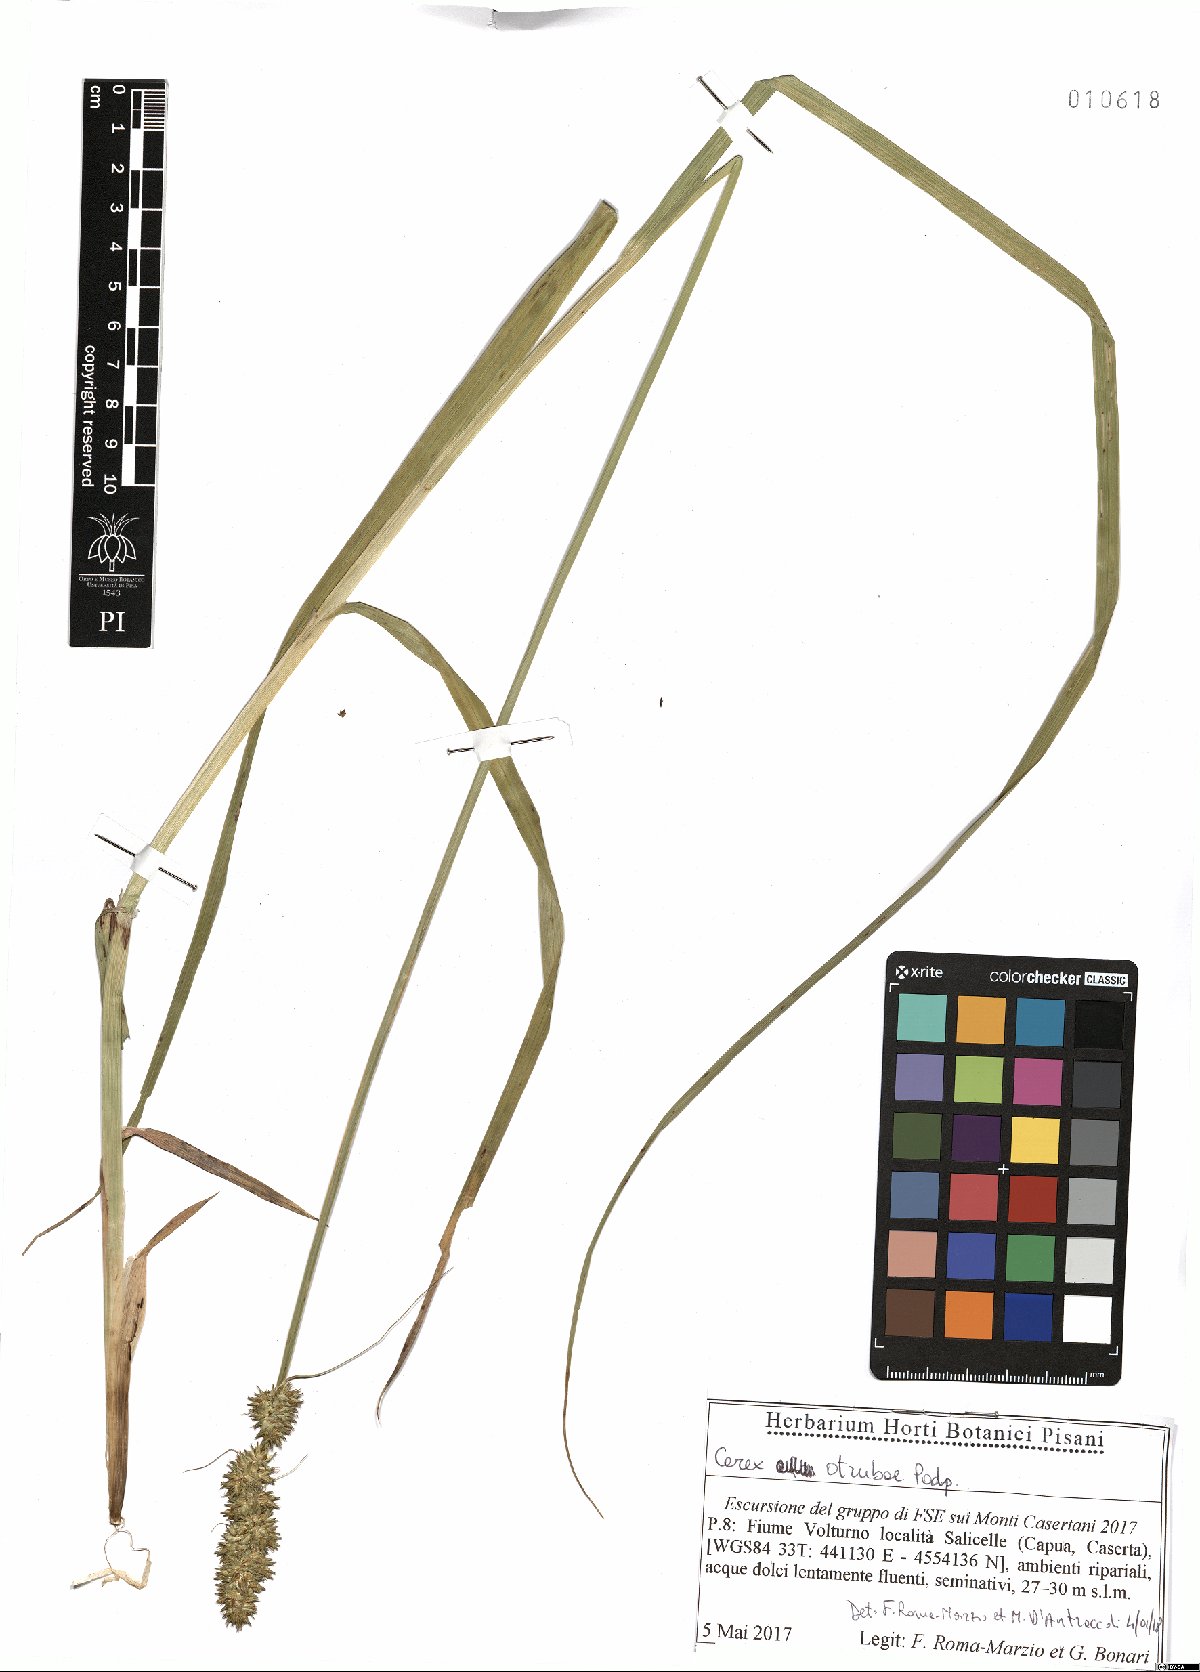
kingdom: Plantae
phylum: Tracheophyta
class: Liliopsida
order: Poales
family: Cyperaceae
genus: Carex
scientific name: Carex otrubae
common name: False fox-sedge
